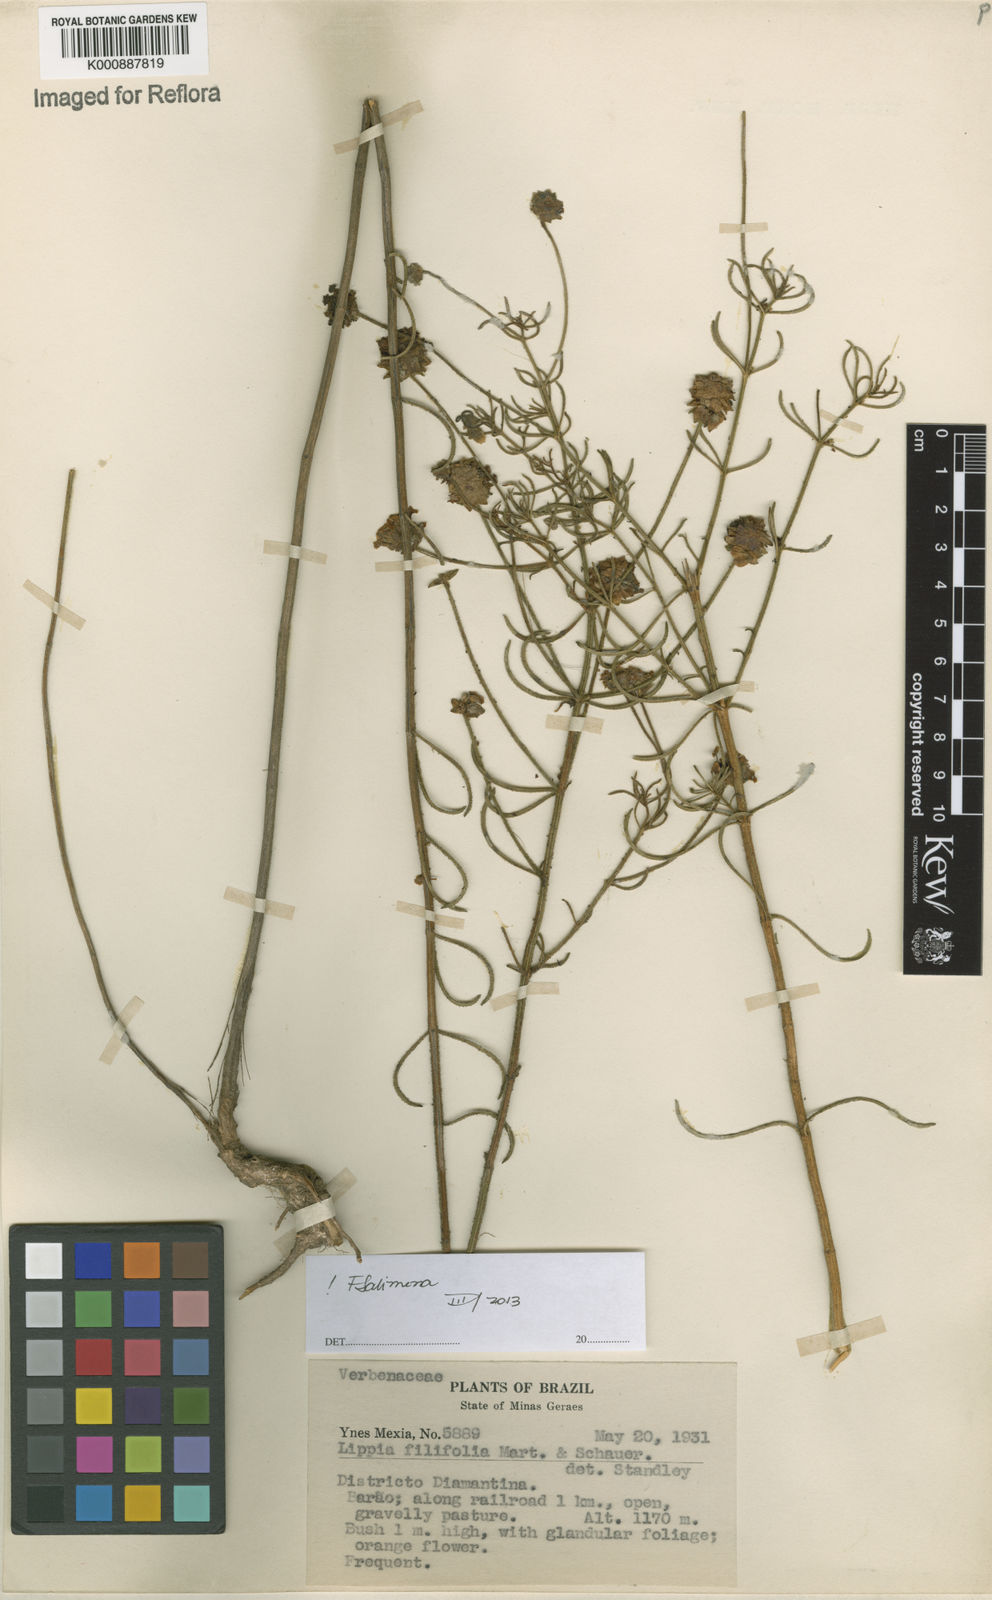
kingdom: Plantae
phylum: Tracheophyta
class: Magnoliopsida
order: Lamiales
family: Verbenaceae
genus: Lippia
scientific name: Lippia filifolia
